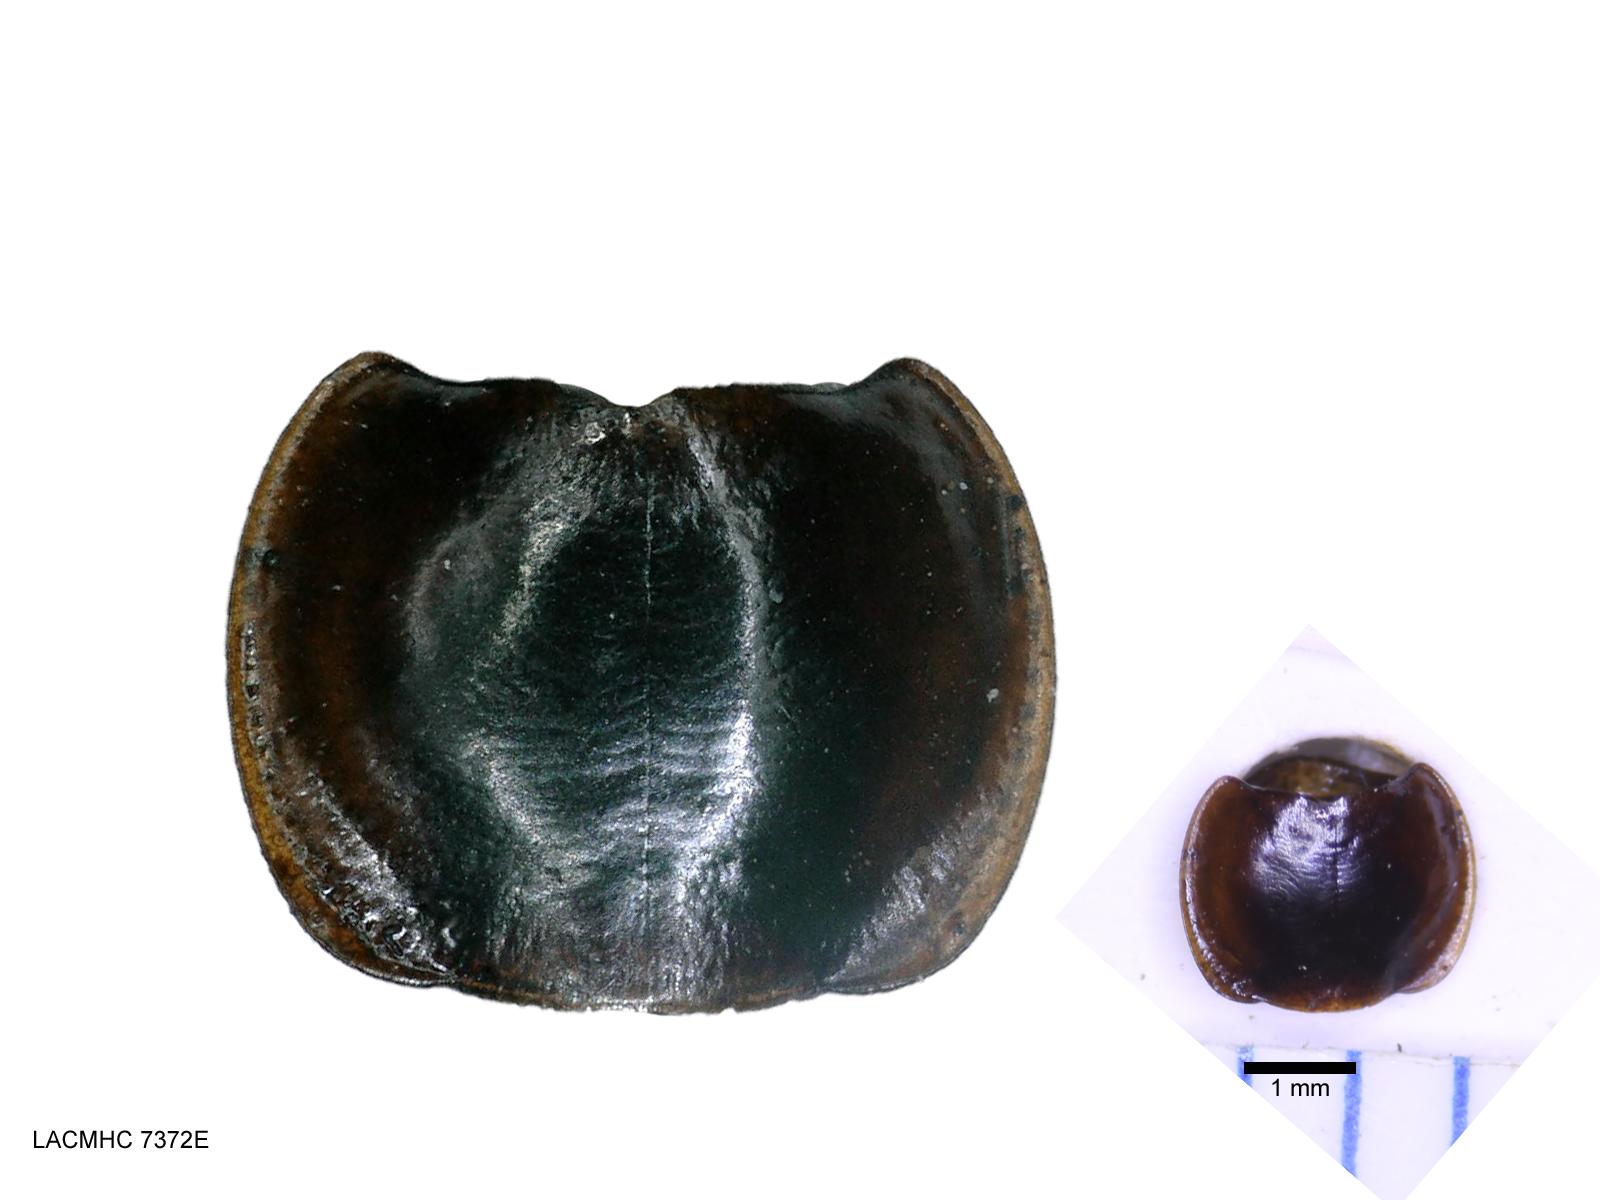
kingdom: Animalia
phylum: Arthropoda
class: Insecta
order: Coleoptera
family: Carabidae
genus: Tanystoma
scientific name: Tanystoma maculicolle
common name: Tule beetle
